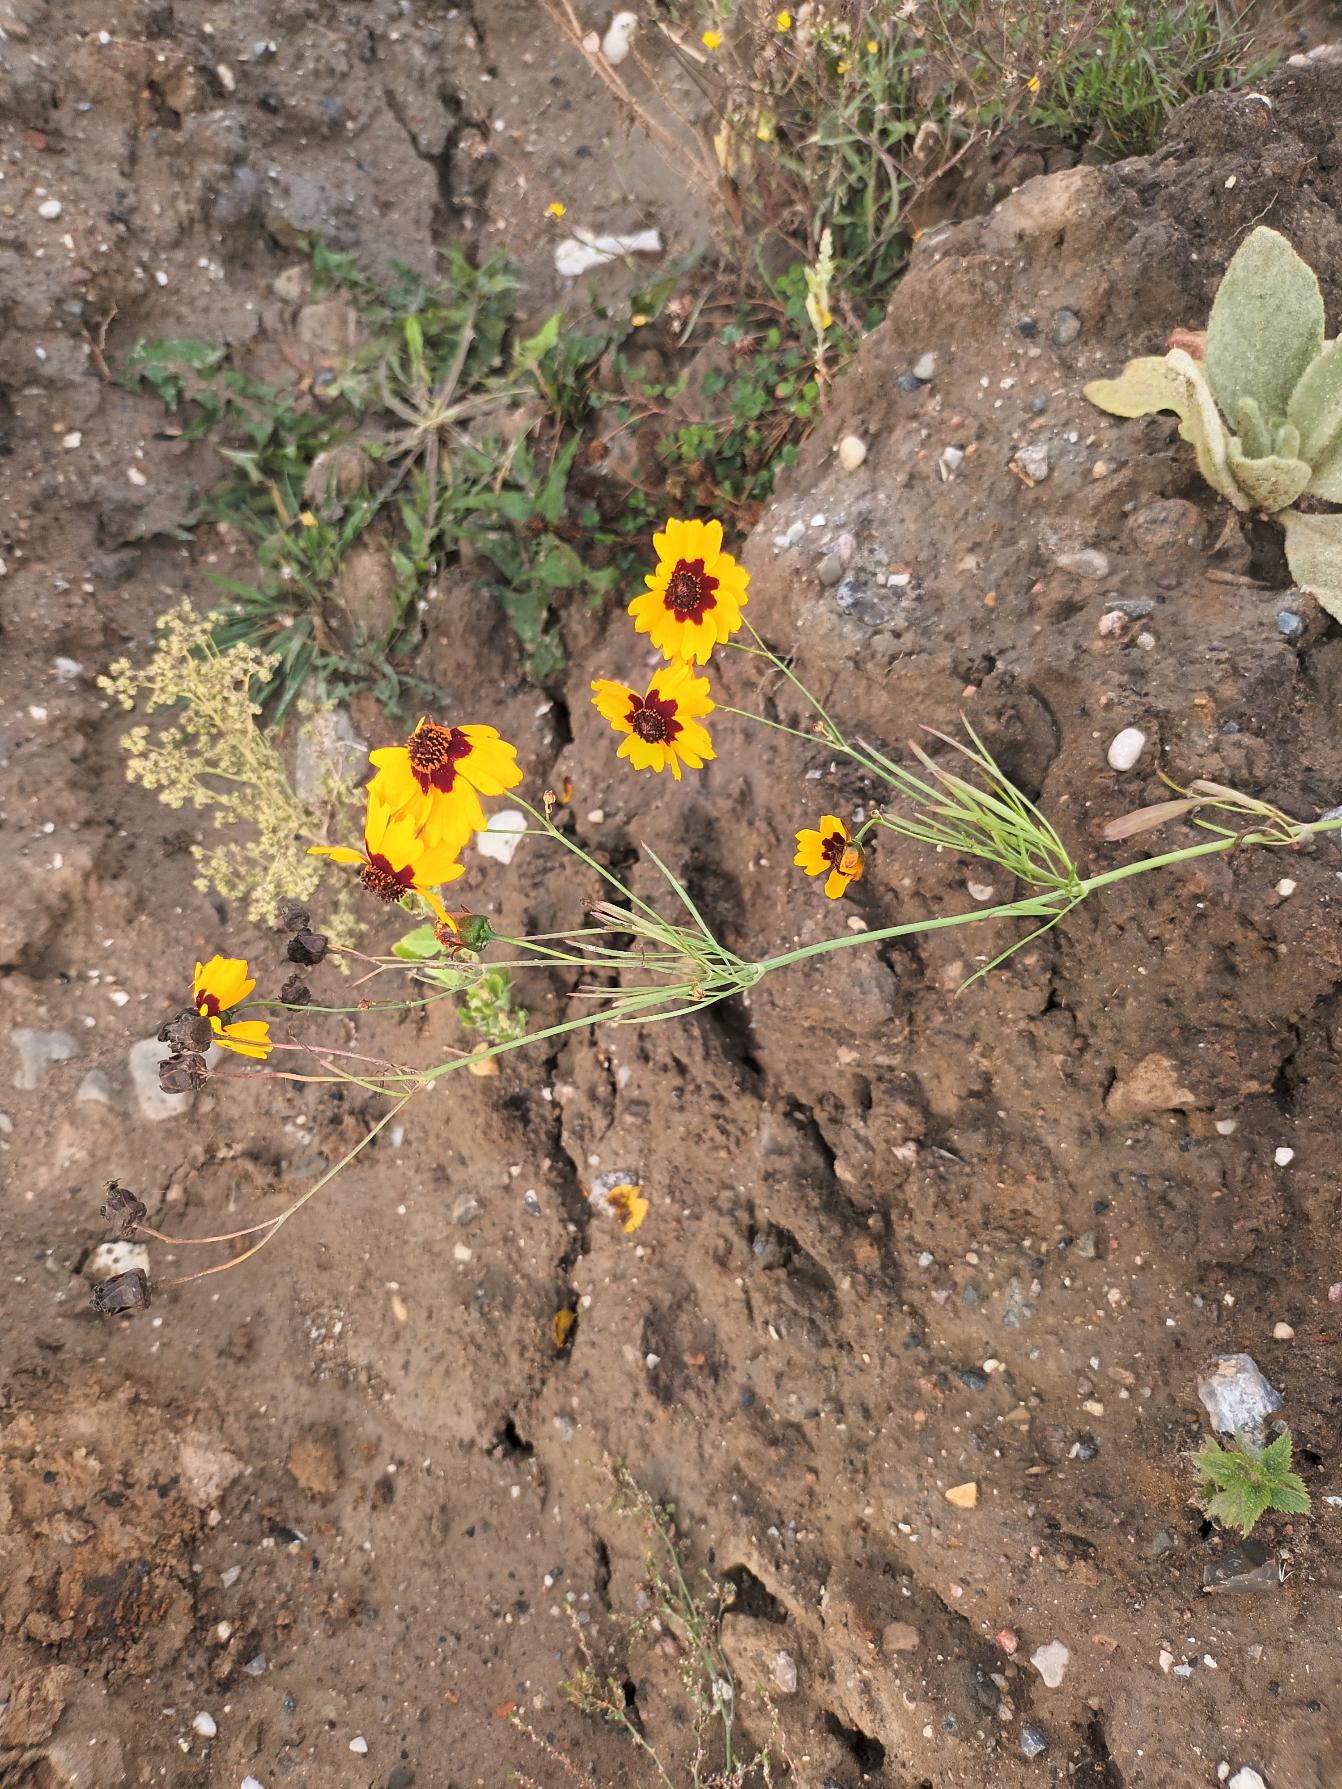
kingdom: Plantae
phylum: Tracheophyta
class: Magnoliopsida
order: Asterales
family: Asteraceae
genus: Coreopsis
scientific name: Coreopsis tinctoria
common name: Skønhedsøje
